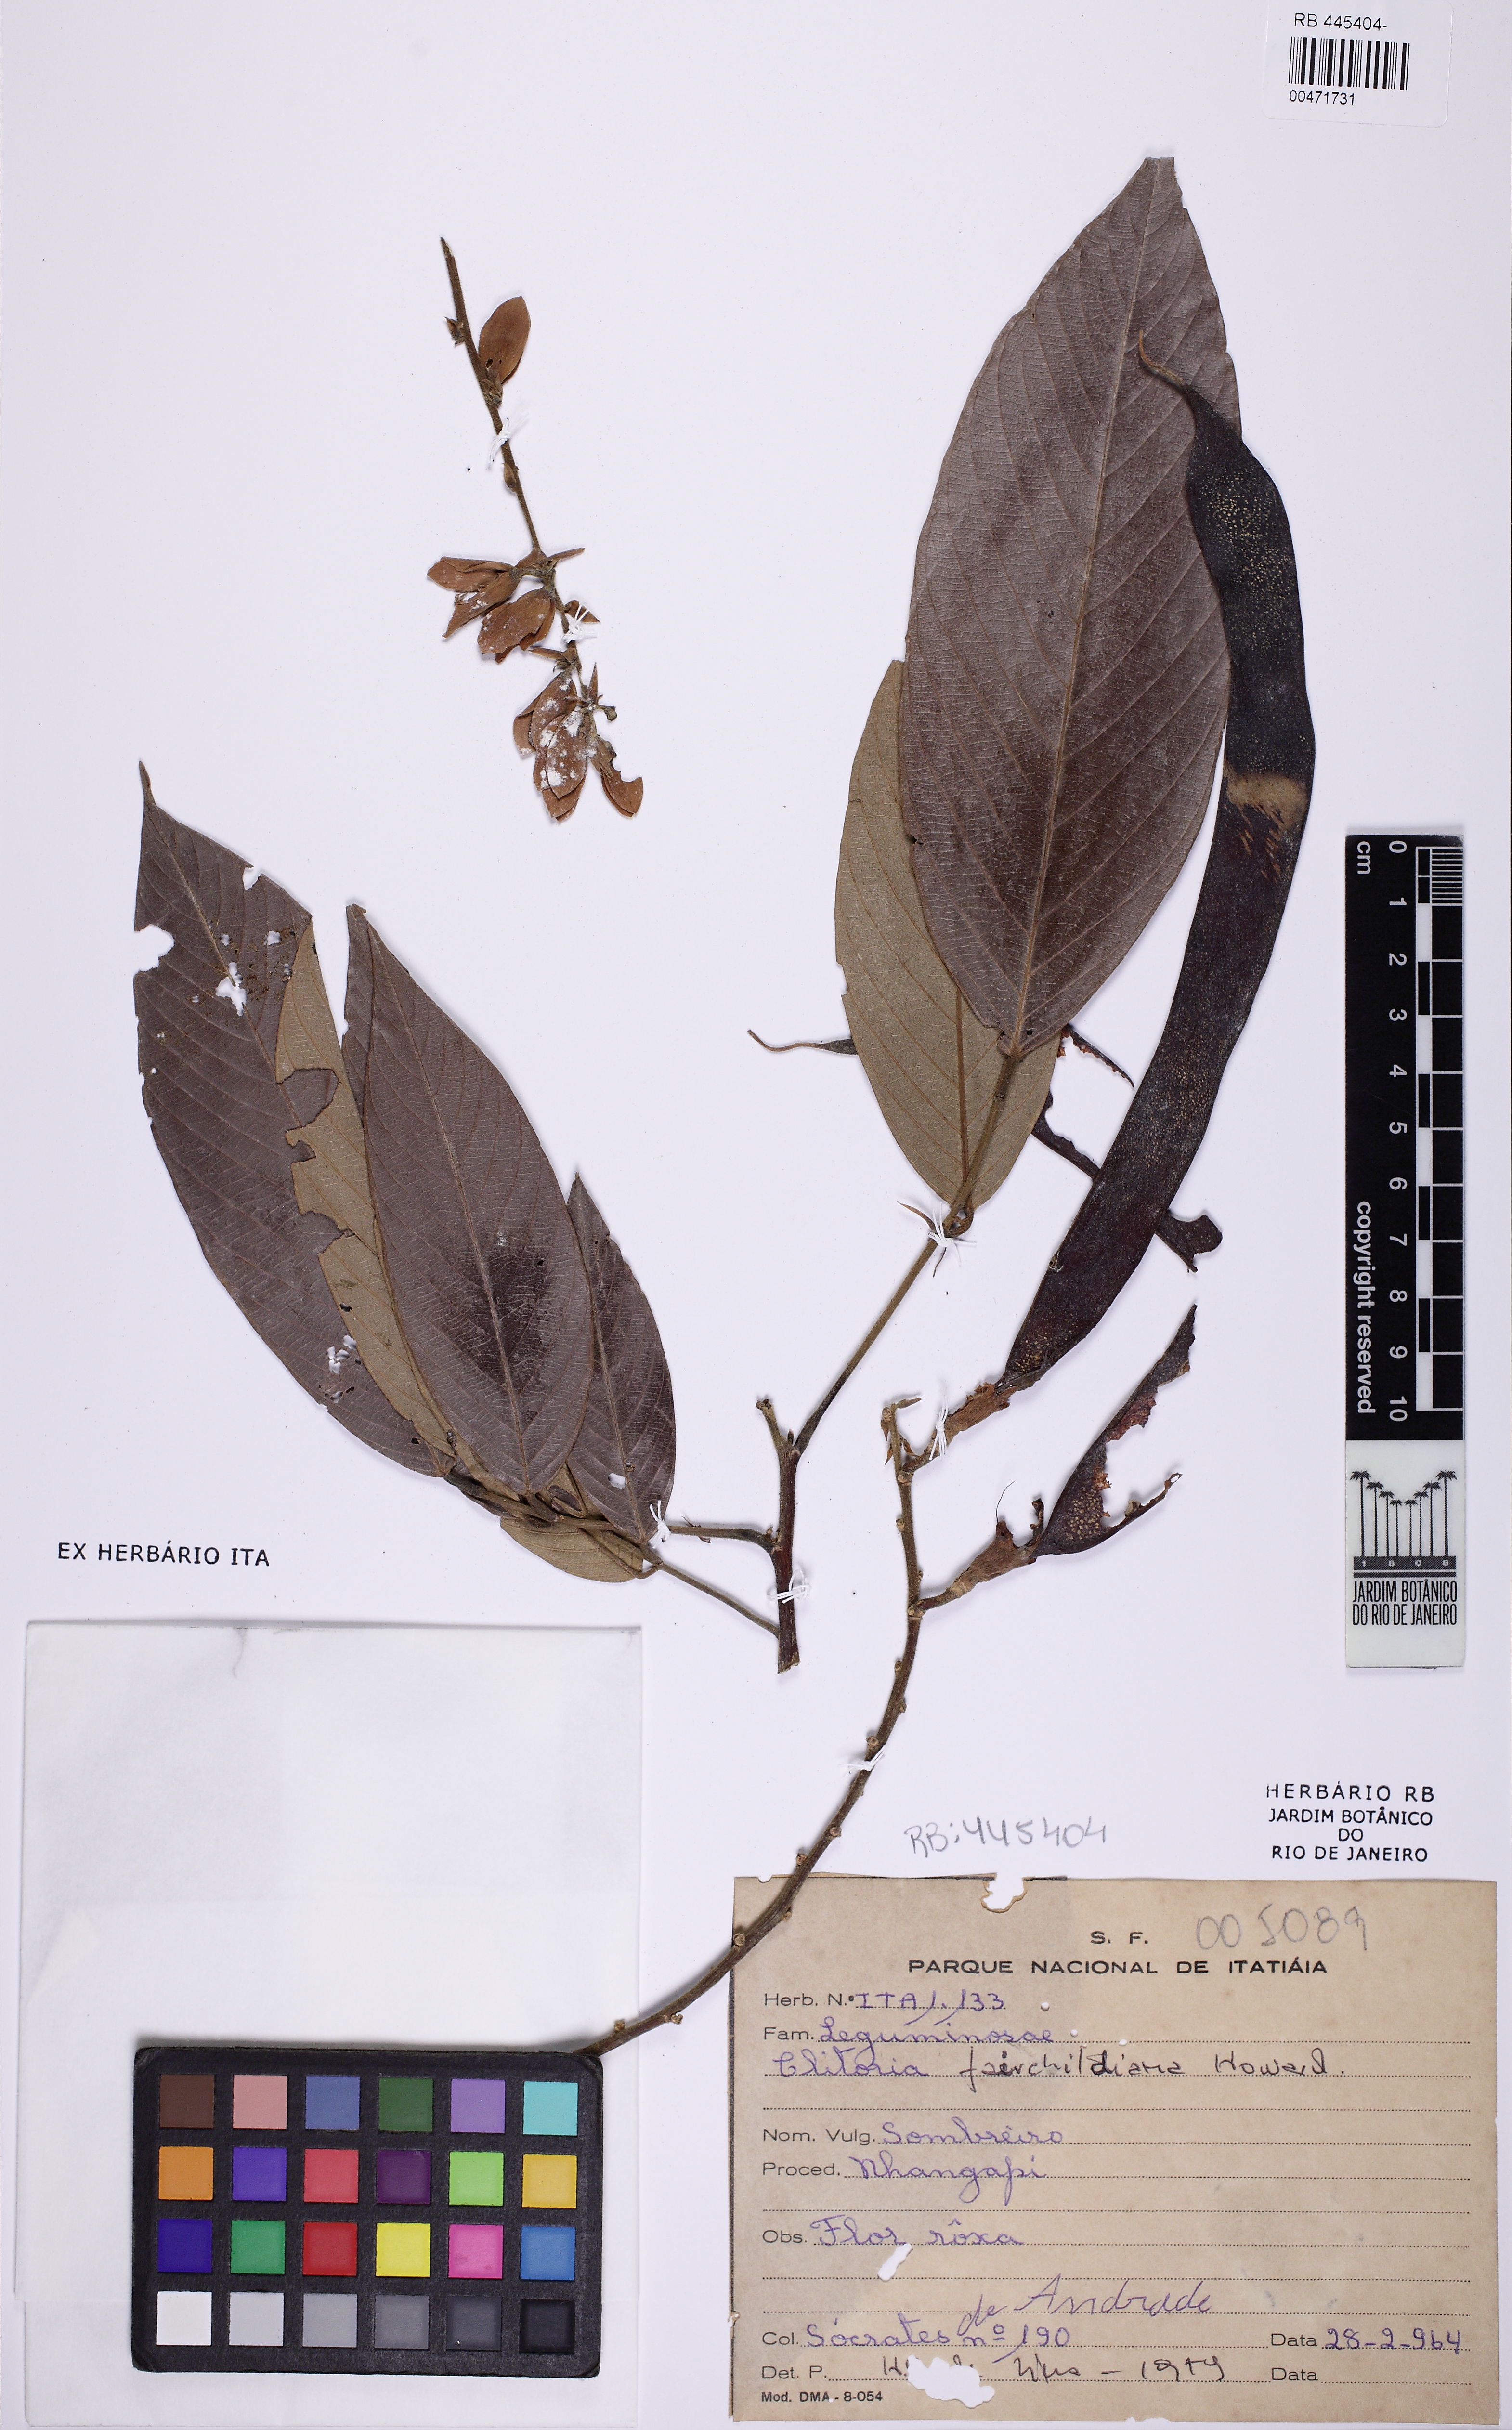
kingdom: Plantae
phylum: Tracheophyta
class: Magnoliopsida
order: Fabales
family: Fabaceae
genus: Clitoria
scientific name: Clitoria fairchildiana
